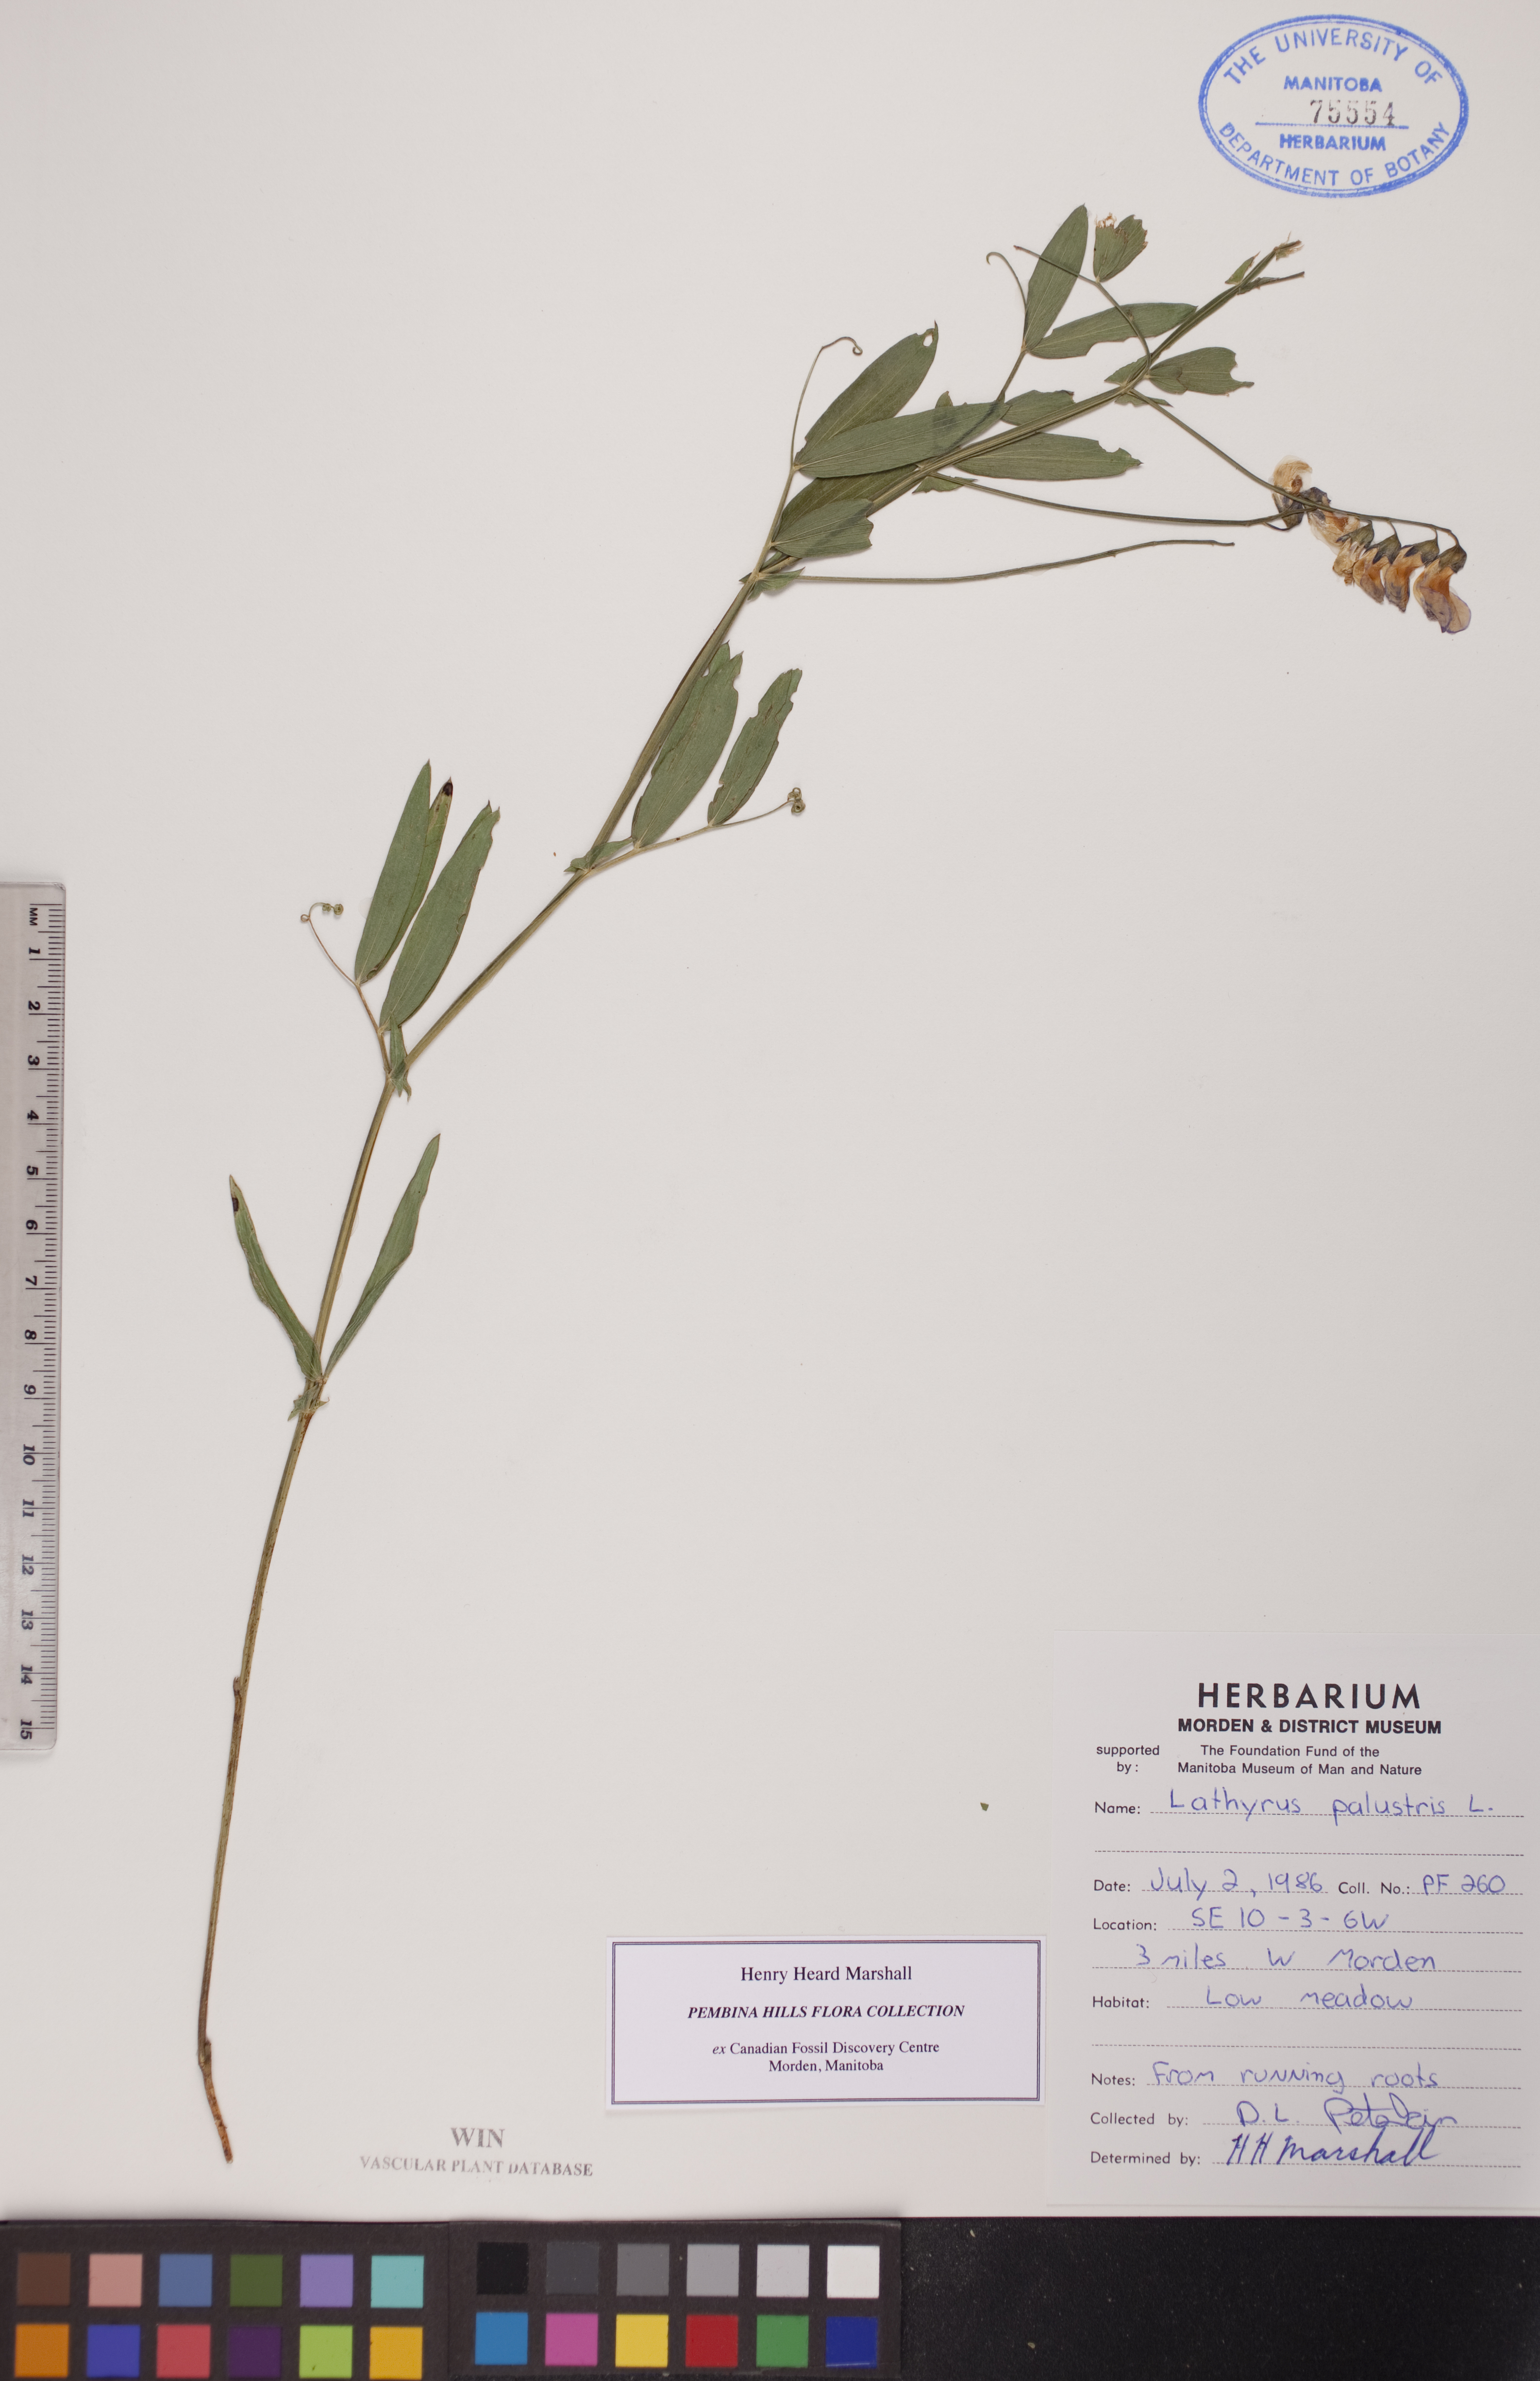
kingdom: Plantae
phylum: Tracheophyta
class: Magnoliopsida
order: Fabales
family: Fabaceae
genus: Lathyrus
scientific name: Lathyrus palustris
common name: Marsh pea
